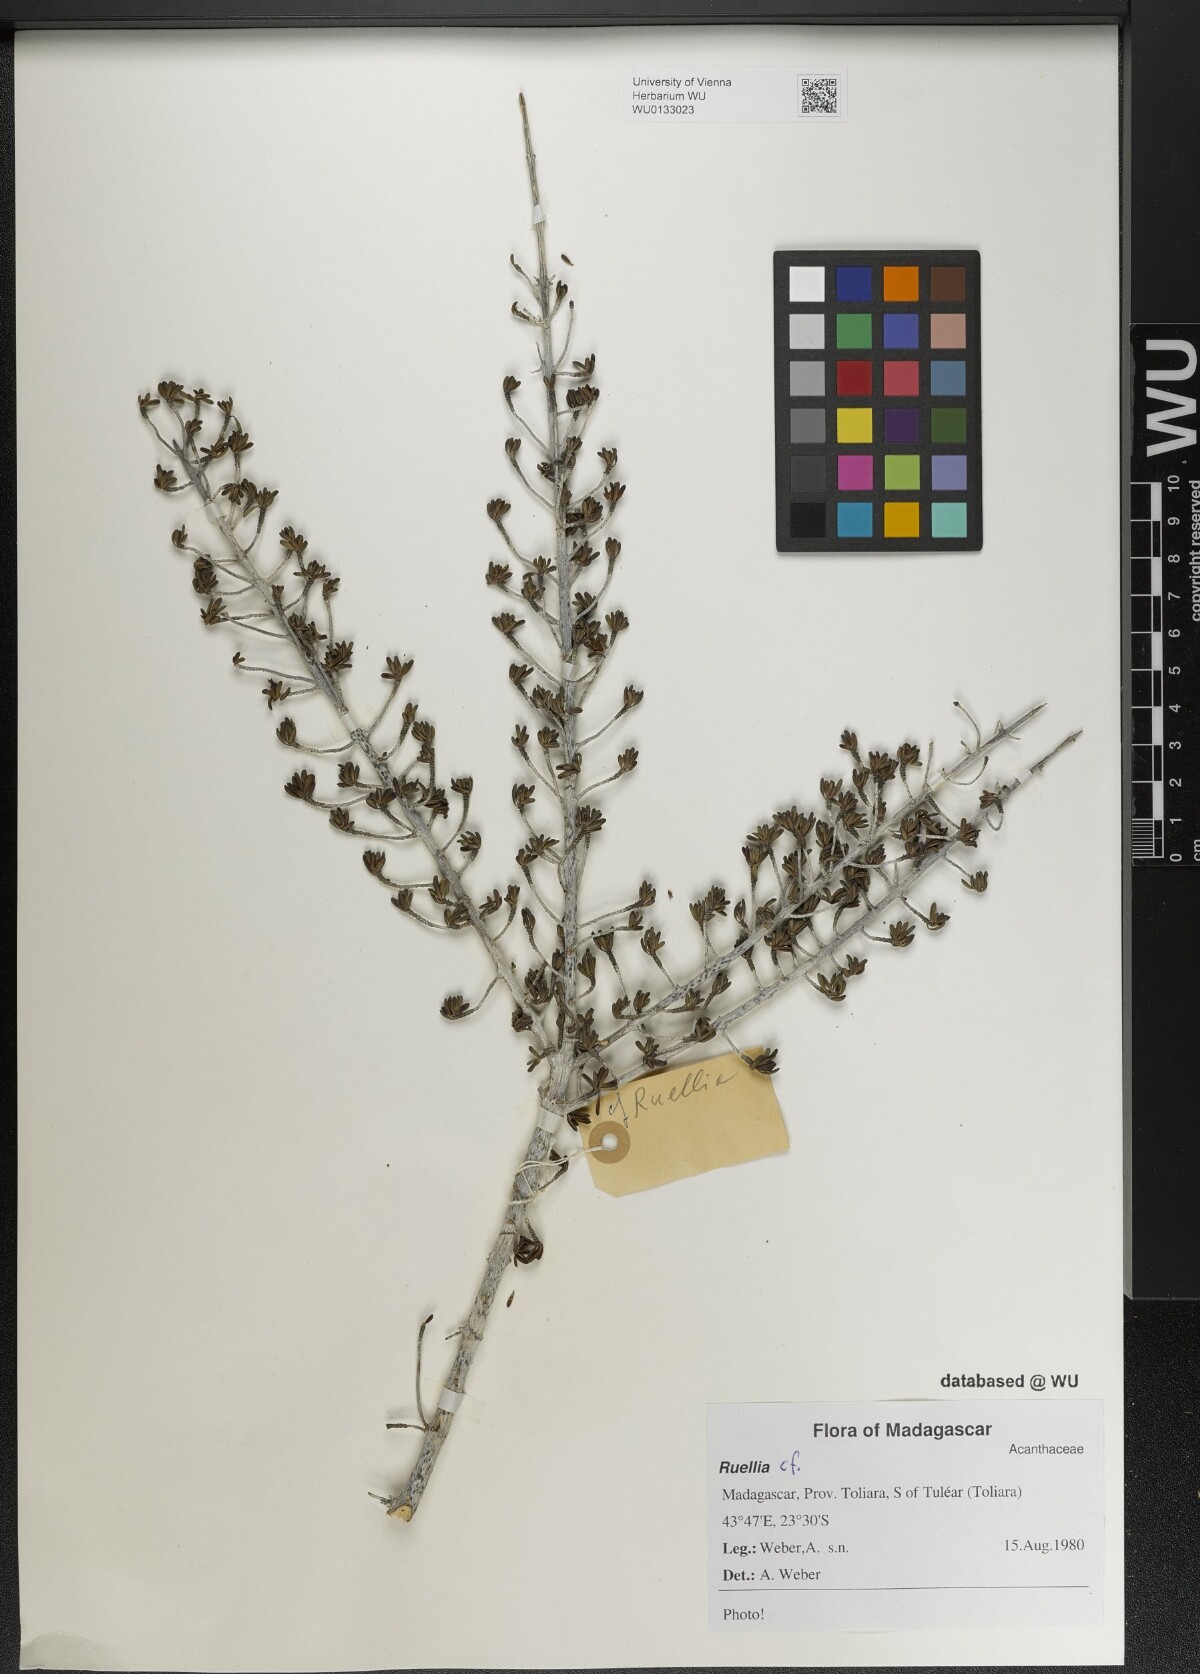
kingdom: Plantae
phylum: Tracheophyta
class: Magnoliopsida
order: Lamiales
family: Acanthaceae
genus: Ruellia
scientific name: Ruellia
